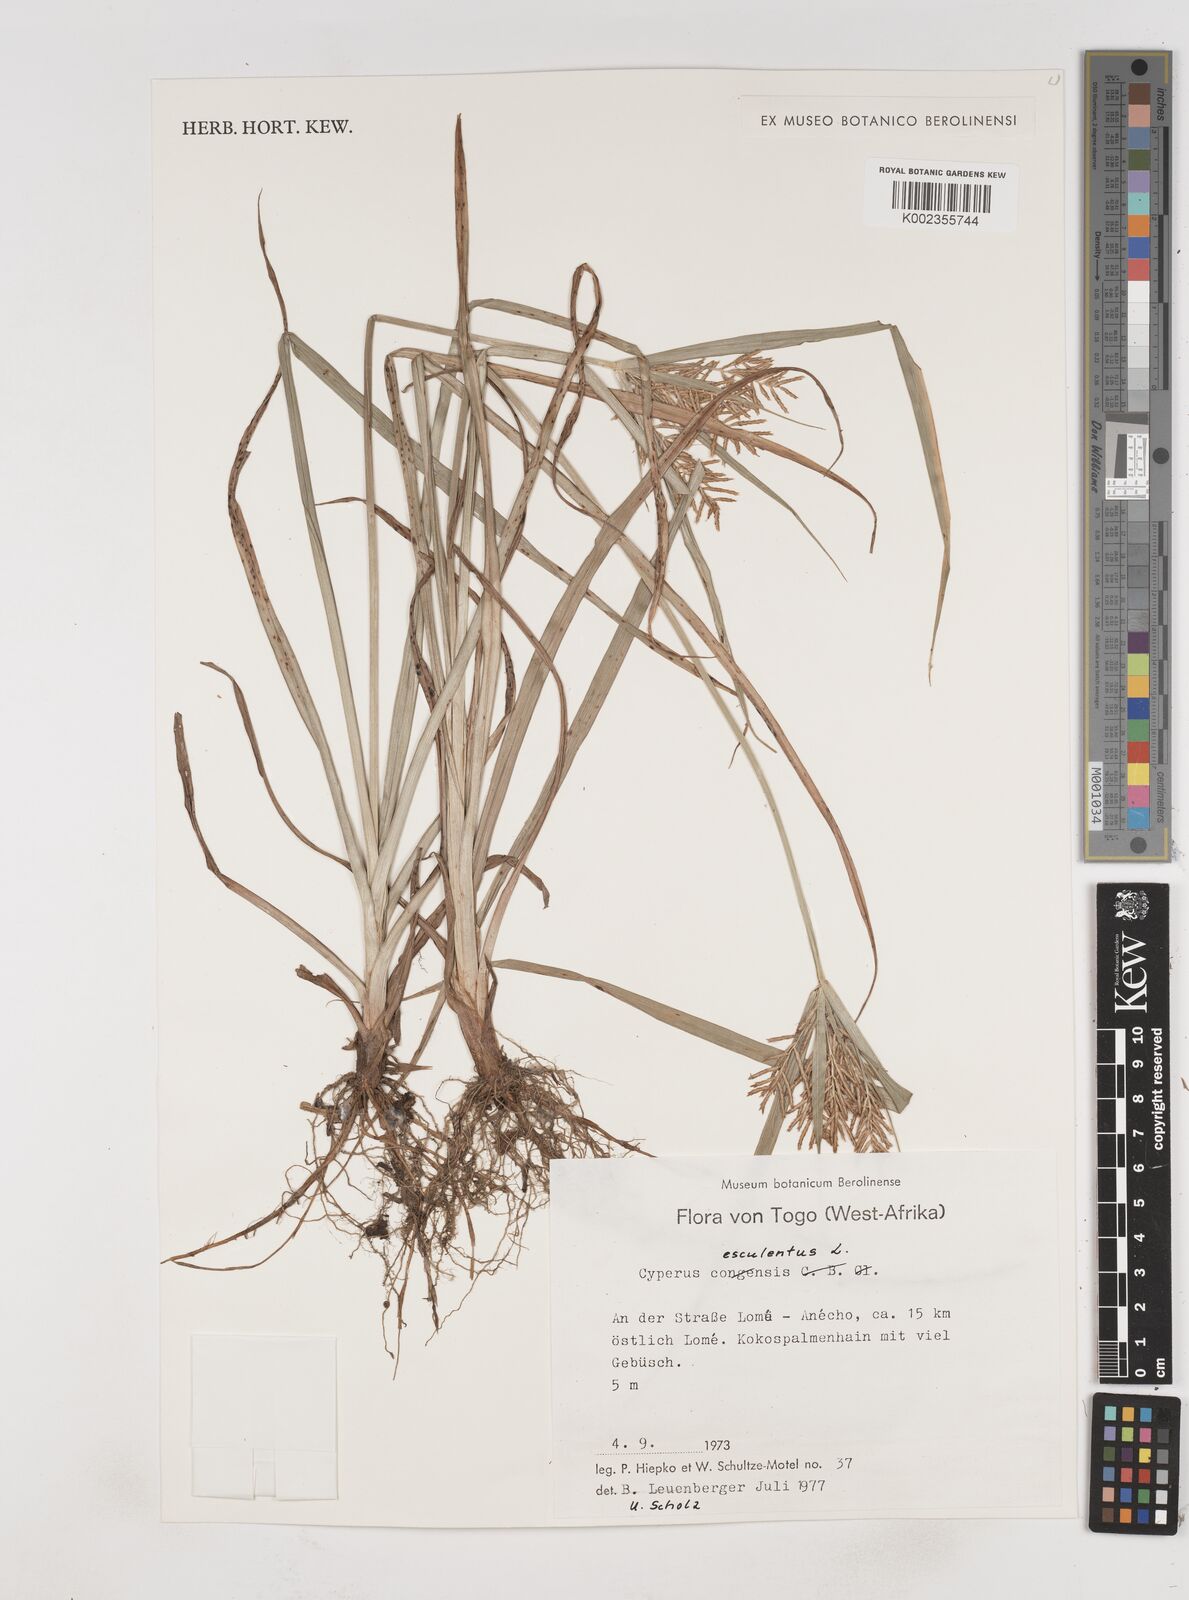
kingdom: Plantae
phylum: Tracheophyta
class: Liliopsida
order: Poales
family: Cyperaceae
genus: Cyperus
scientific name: Cyperus esculentus
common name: Yellow nutsedge
